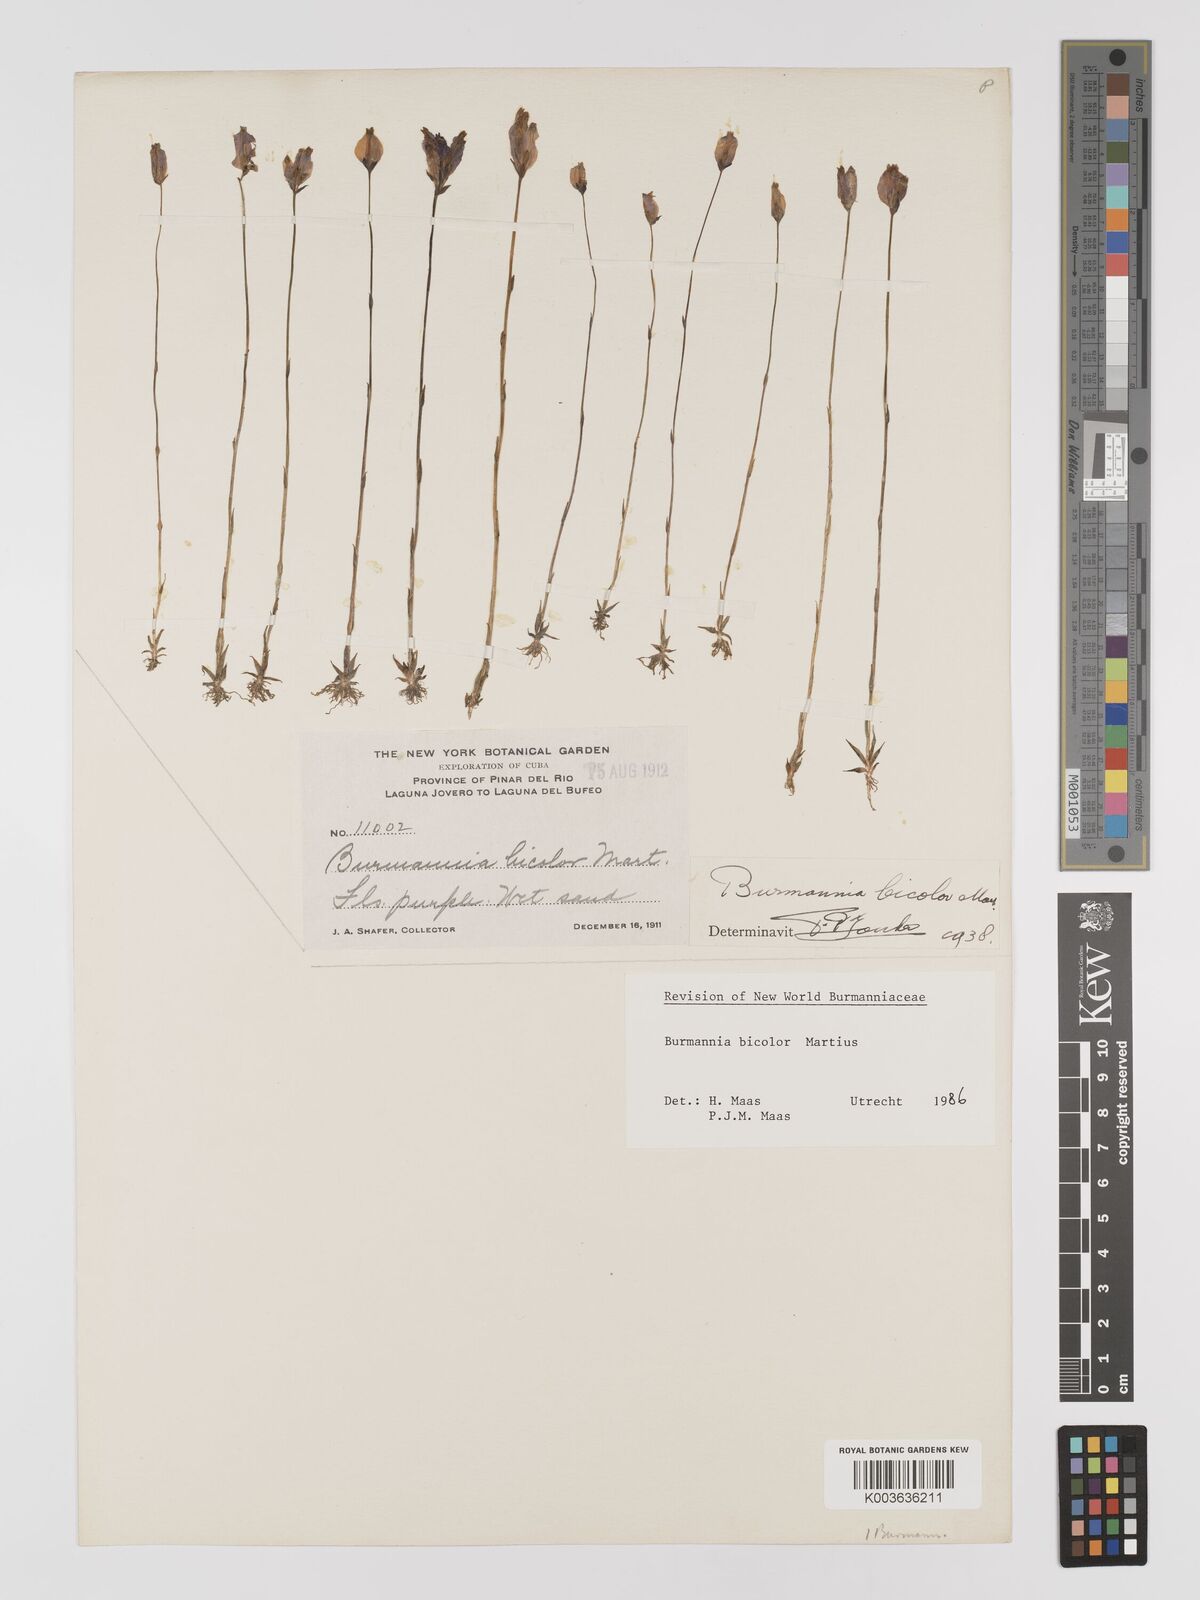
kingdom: Plantae
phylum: Tracheophyta
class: Liliopsida
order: Dioscoreales
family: Burmanniaceae
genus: Burmannia
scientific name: Burmannia bicolor
